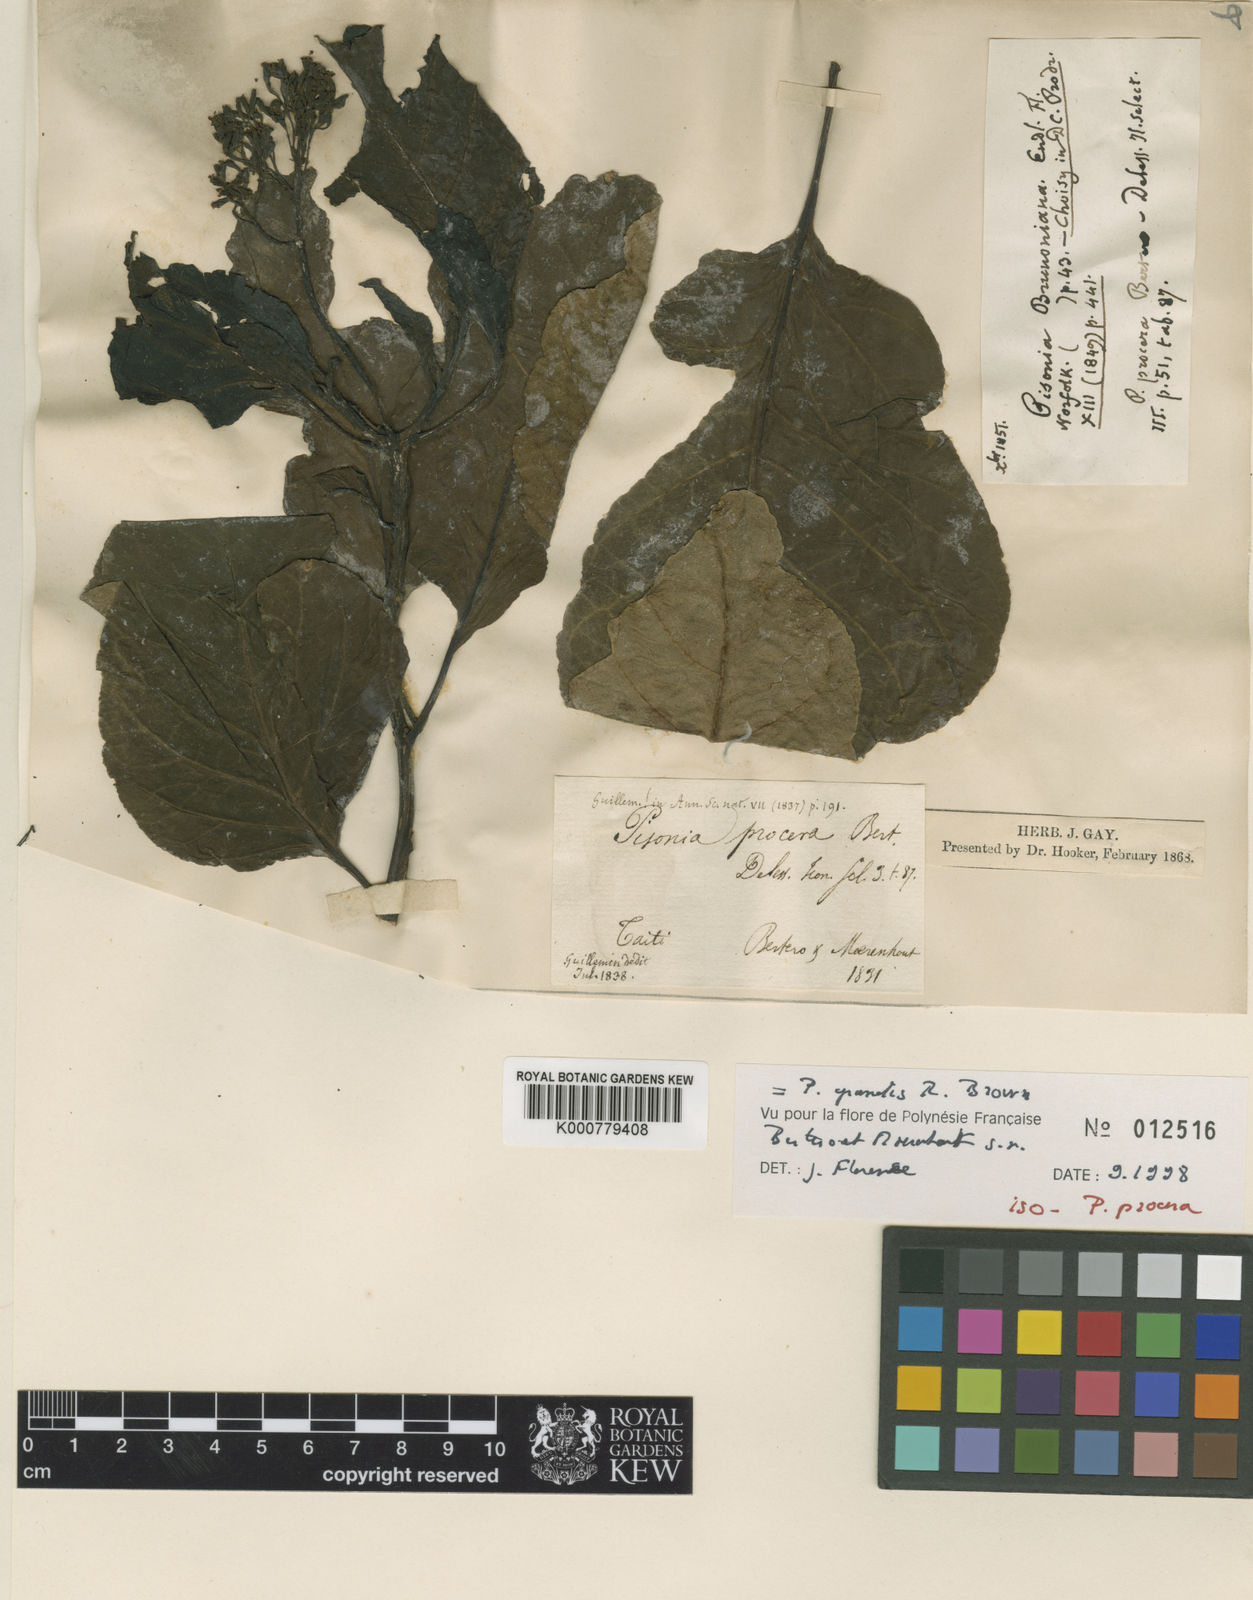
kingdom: Plantae
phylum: Tracheophyta
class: Magnoliopsida
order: Caryophyllales
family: Nyctaginaceae
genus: Ceodes
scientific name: Ceodes grandis
